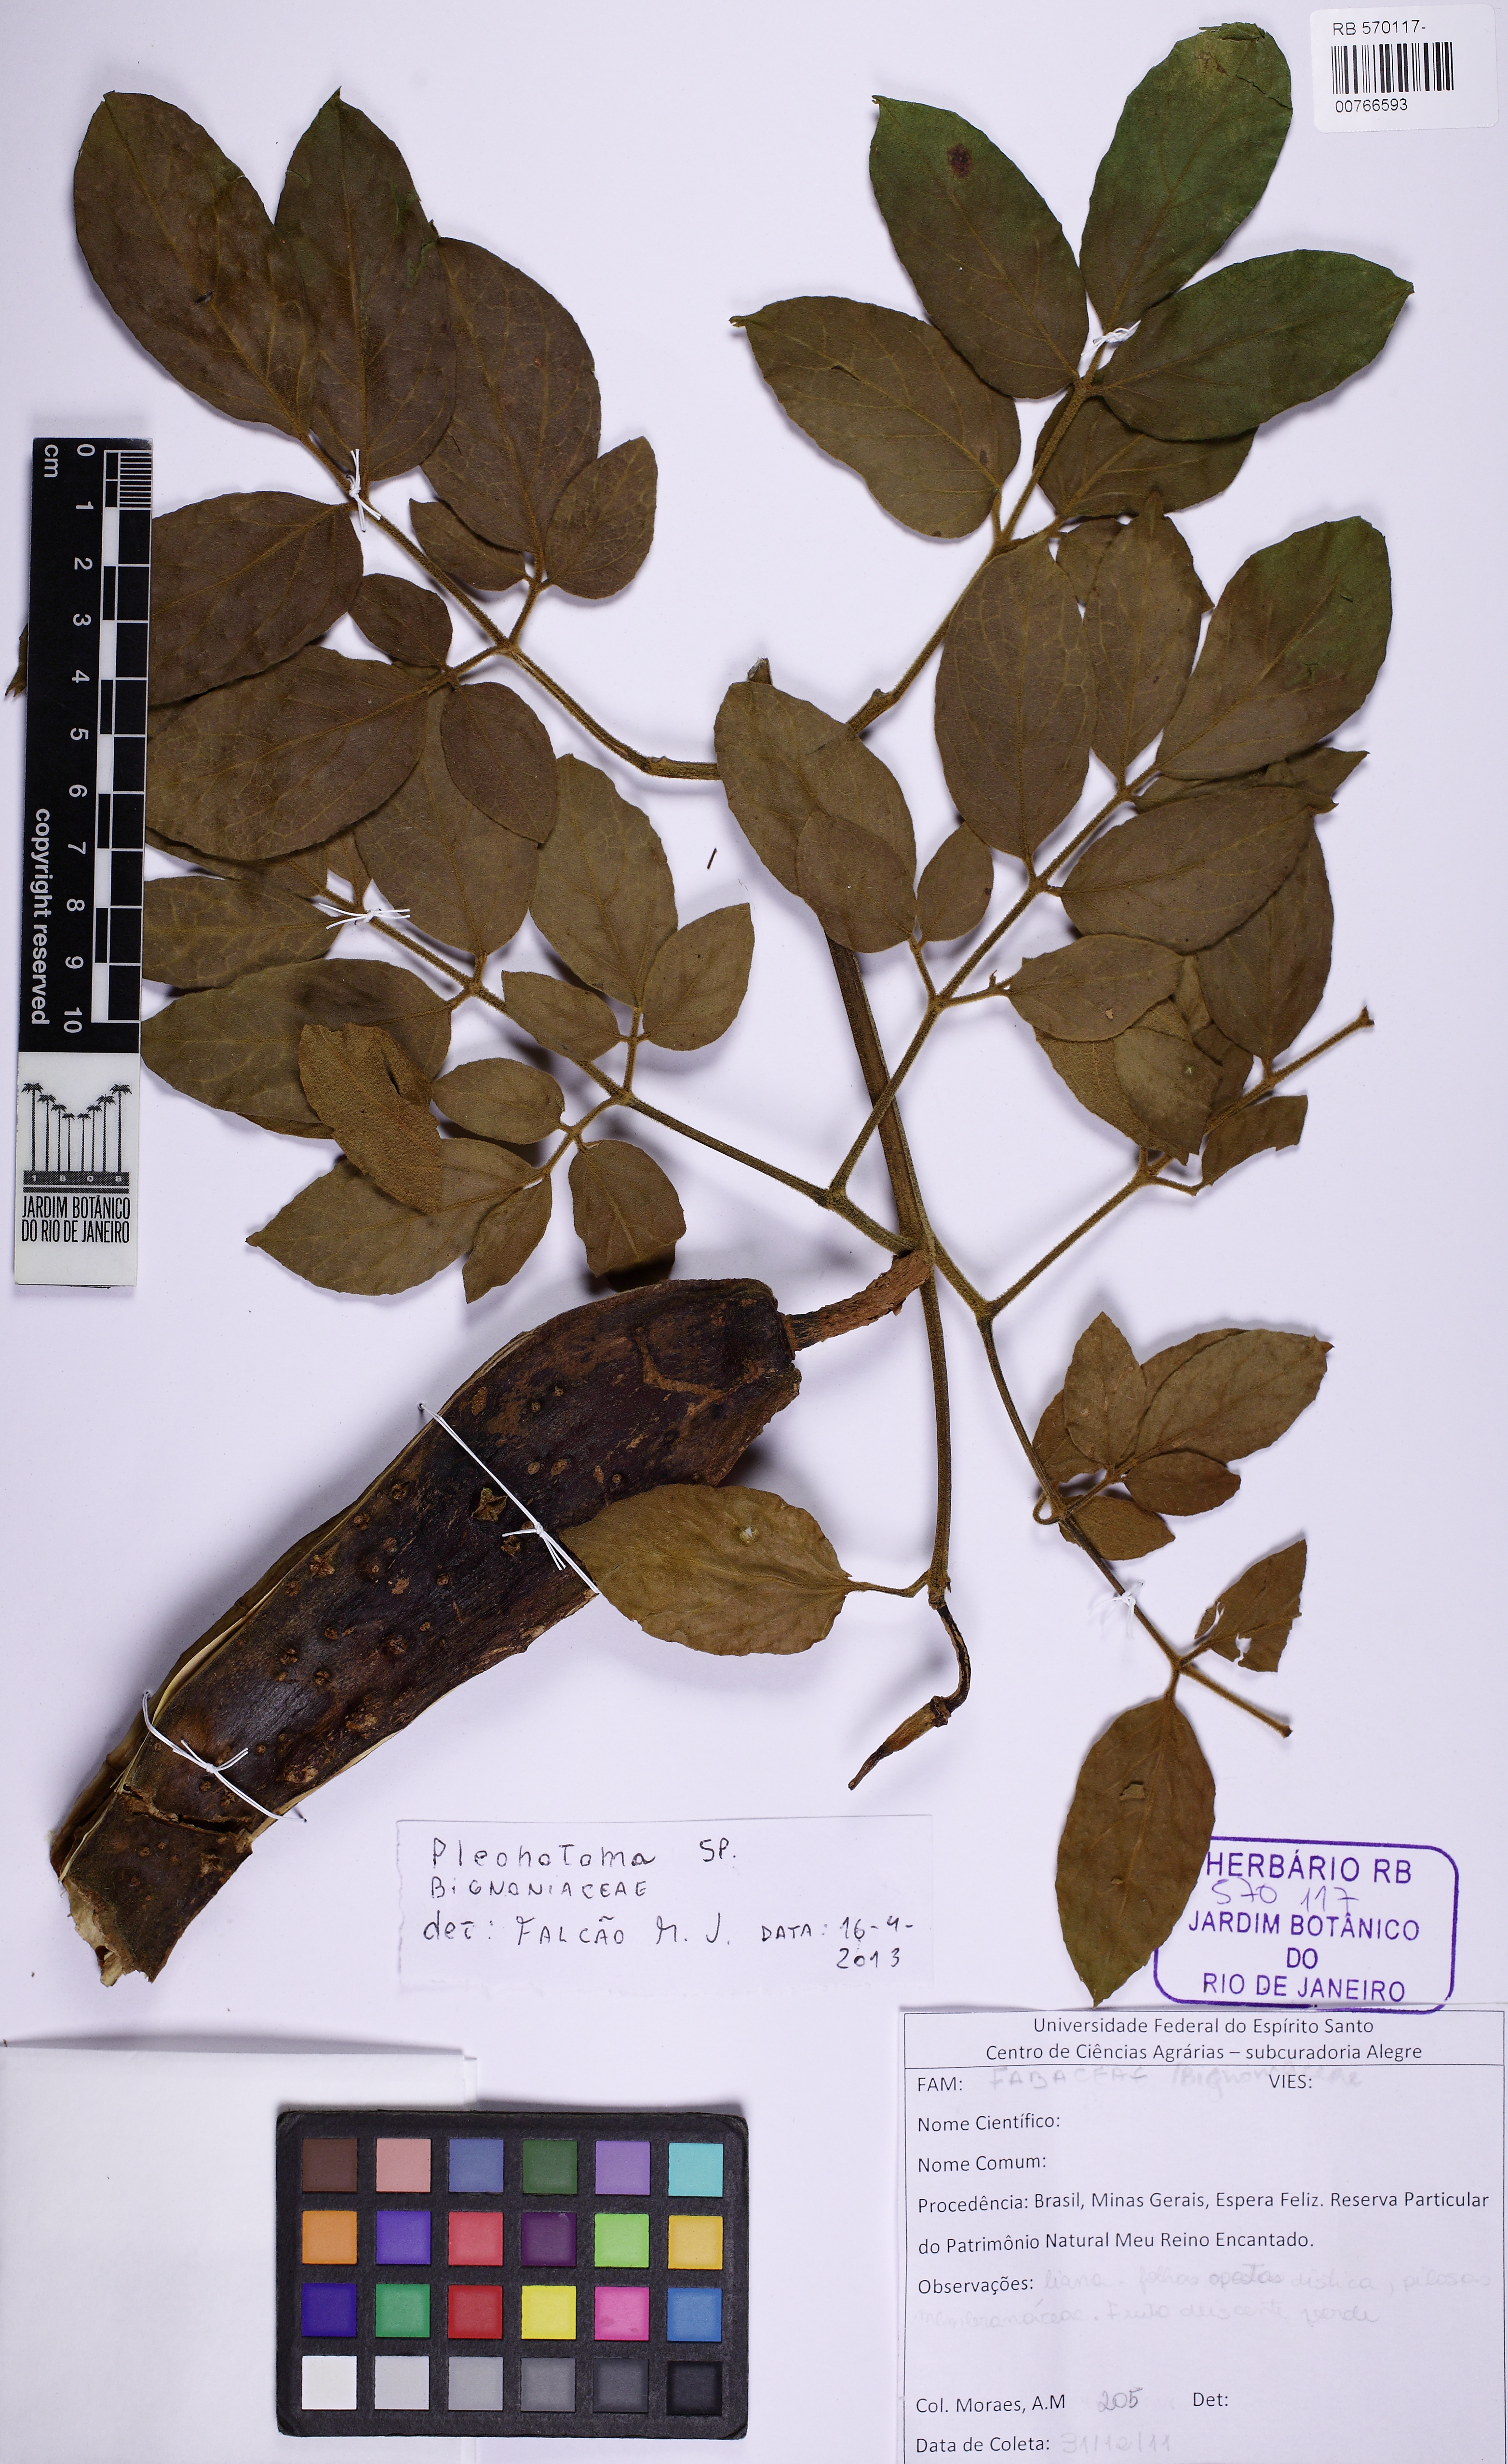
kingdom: Plantae
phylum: Tracheophyta
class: Magnoliopsida
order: Lamiales
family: Bignoniaceae
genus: Pleonotoma
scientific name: Pleonotoma tetraquetra
